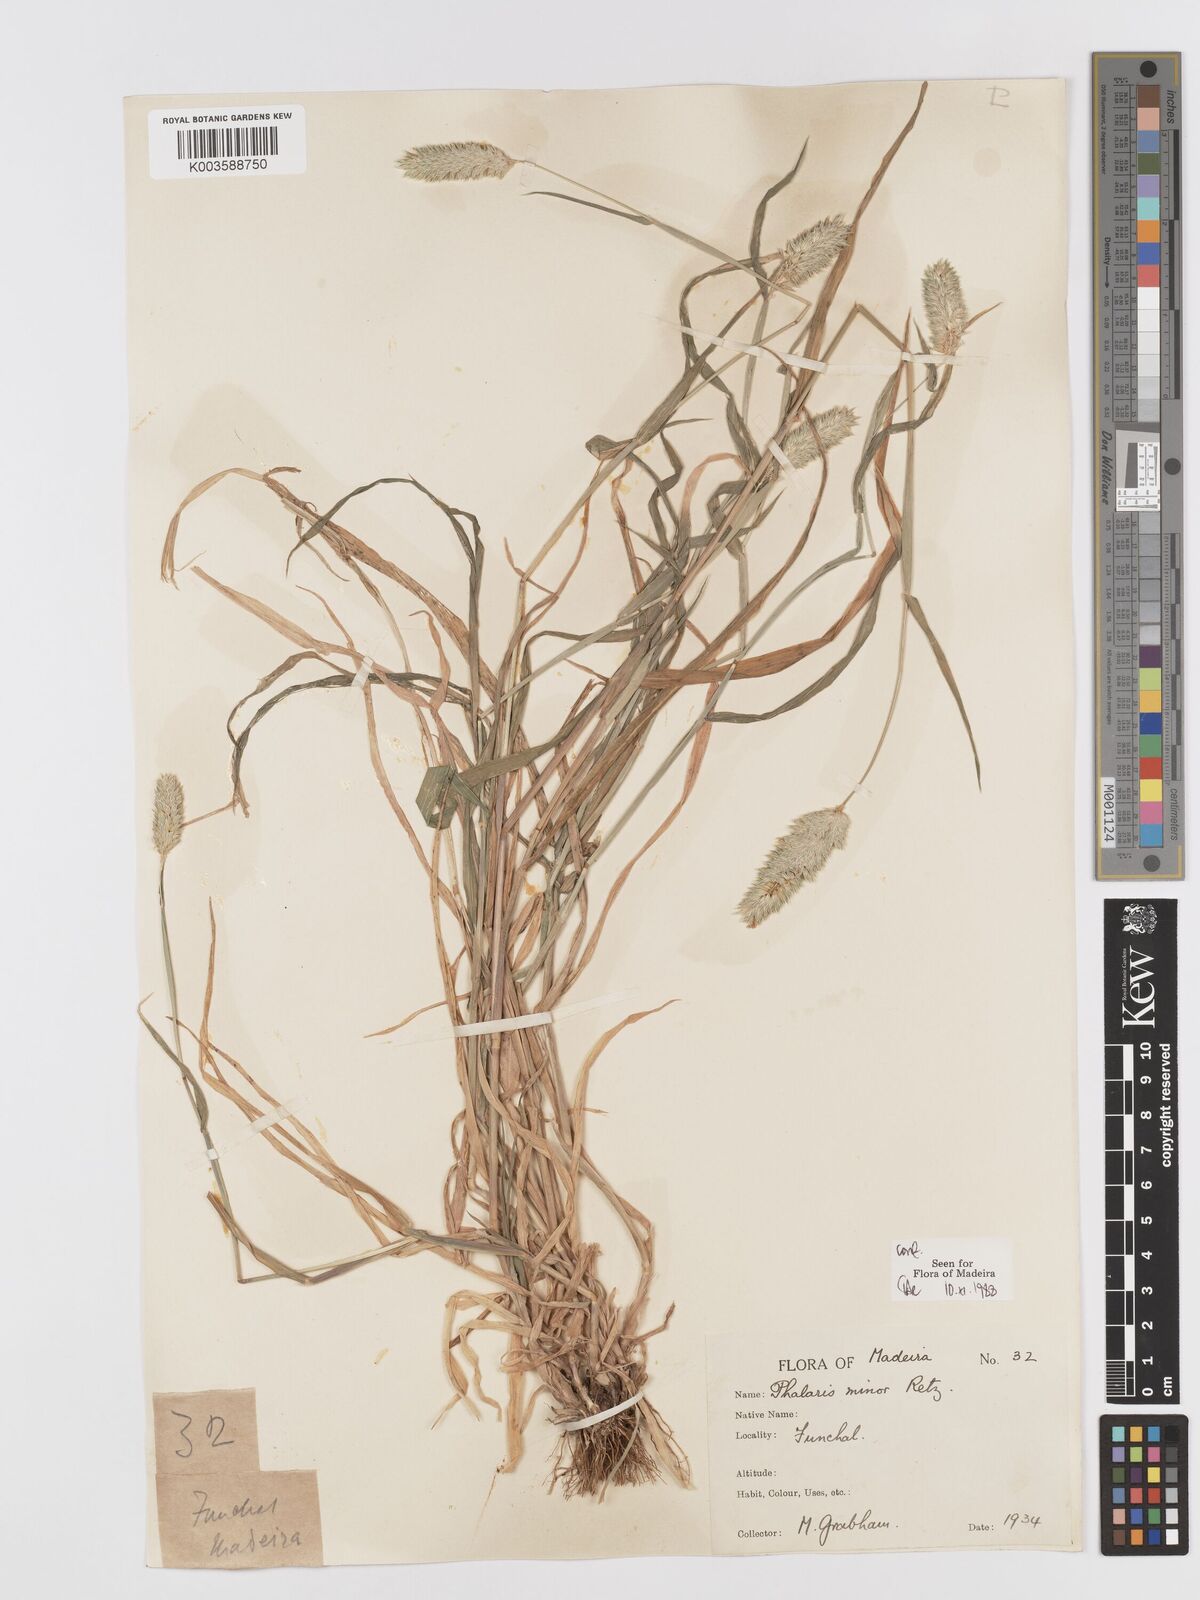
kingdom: Plantae
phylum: Tracheophyta
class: Liliopsida
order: Poales
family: Poaceae
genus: Phalaris
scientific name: Phalaris minor
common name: Littleseed canarygrass
